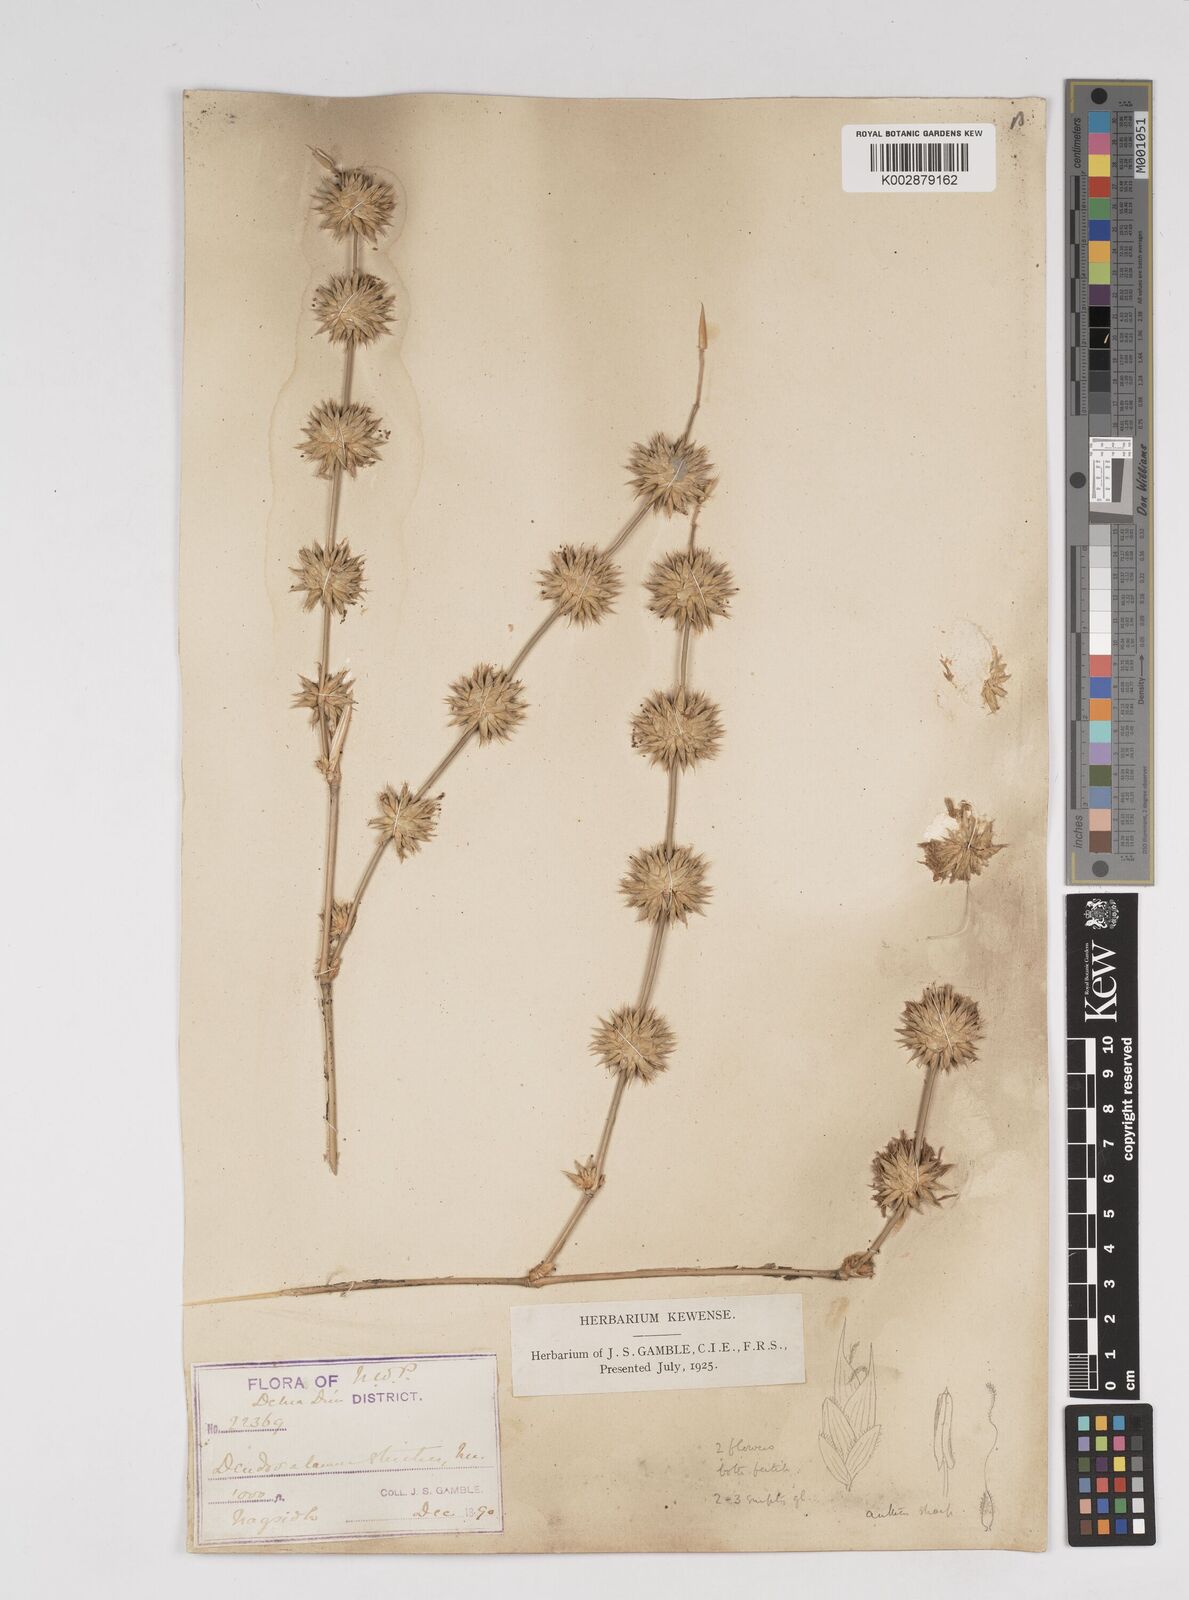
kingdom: Plantae
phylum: Tracheophyta
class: Liliopsida
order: Poales
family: Poaceae
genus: Dendrocalamus
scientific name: Dendrocalamus strictus
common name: Male bamboo
